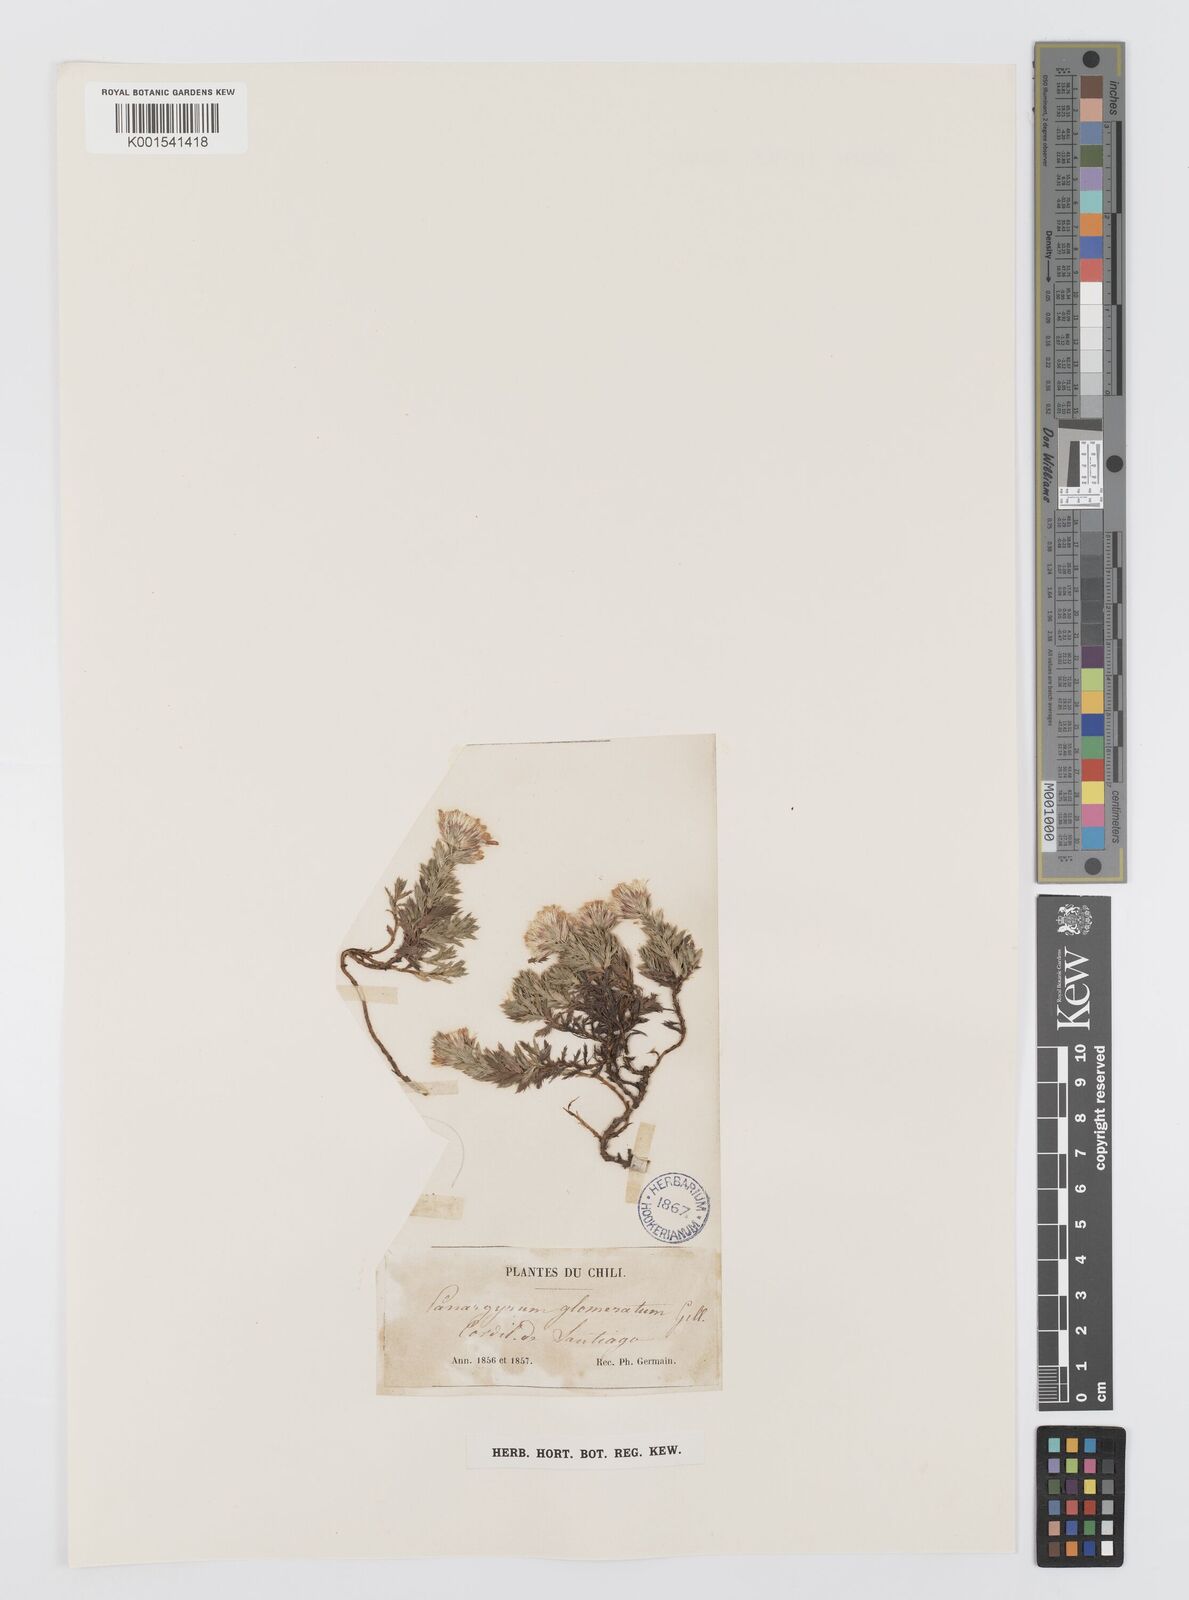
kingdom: Plantae
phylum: Tracheophyta
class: Magnoliopsida
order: Asterales
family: Asteraceae
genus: Nassauvia
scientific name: Nassauvia glomerata
